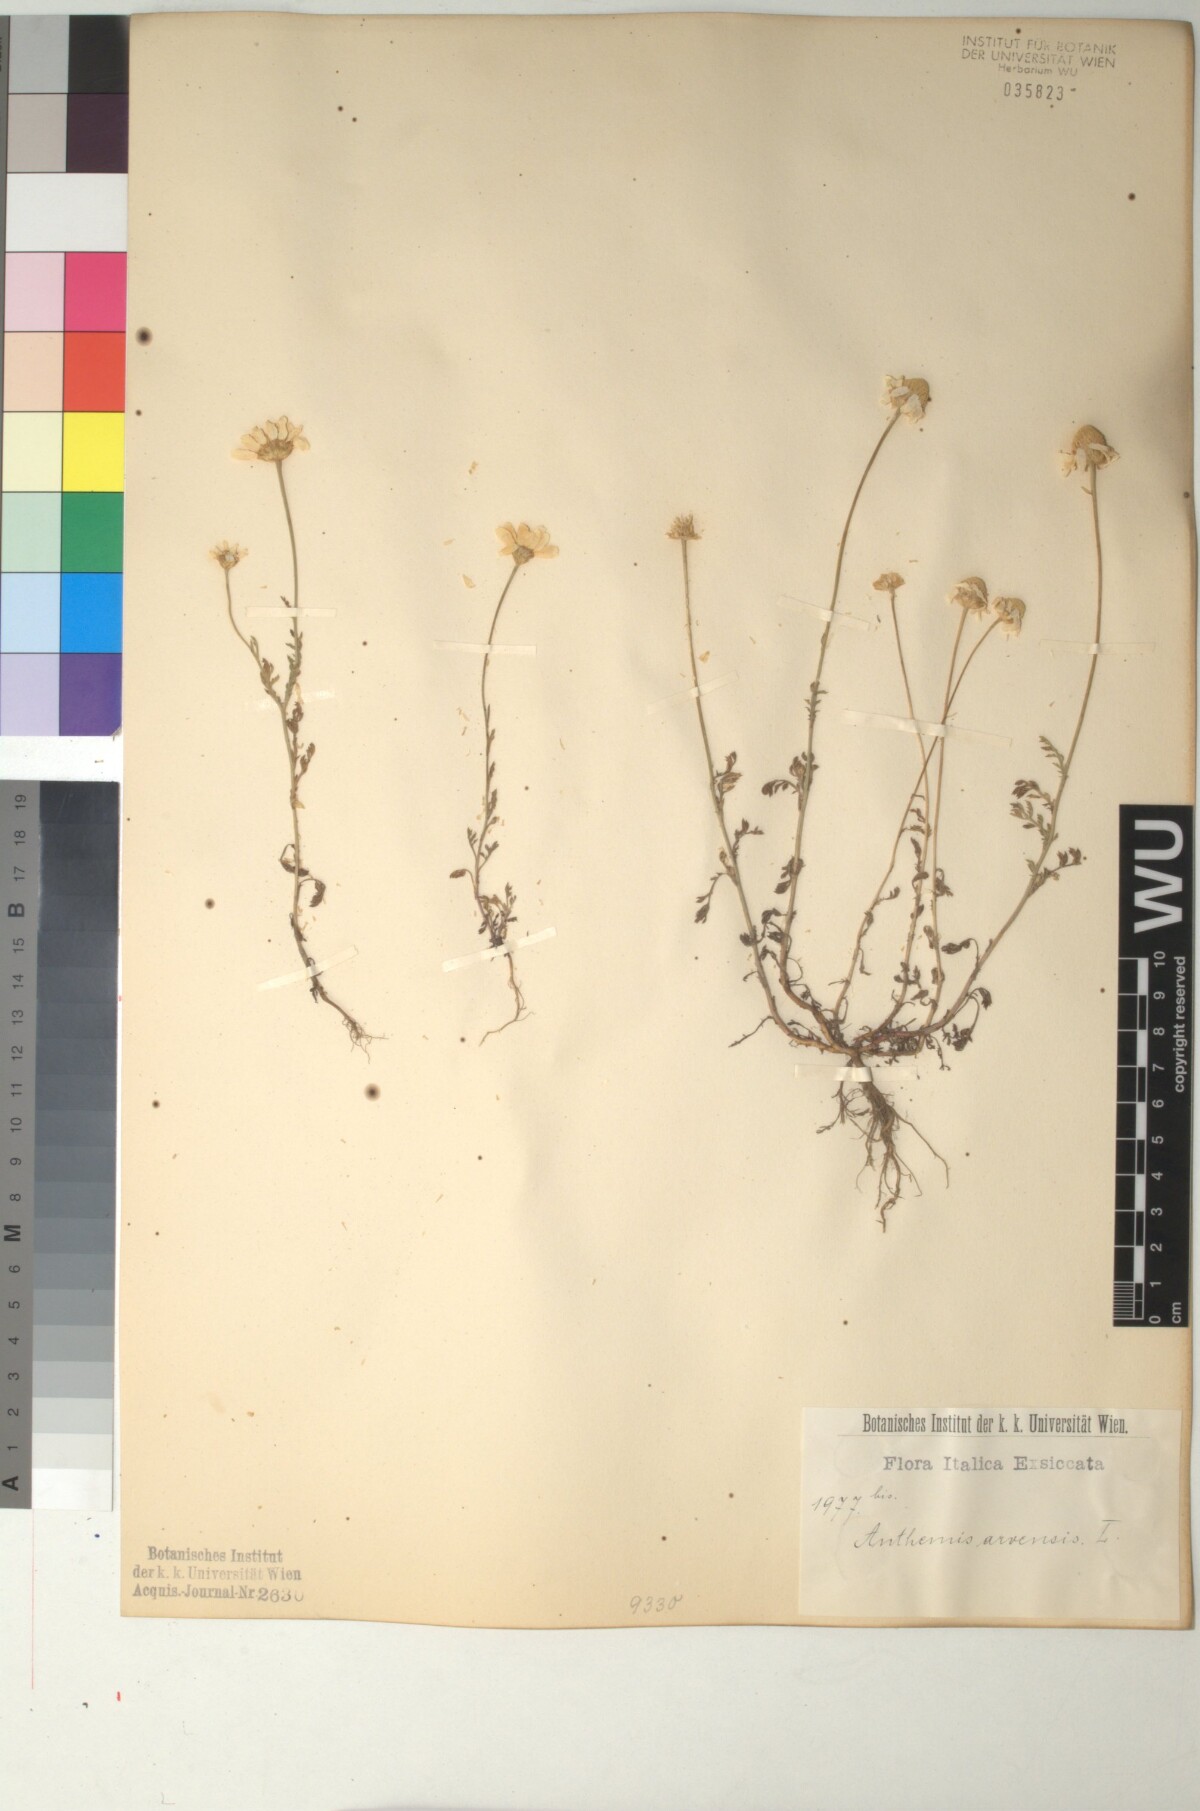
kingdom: Plantae
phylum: Tracheophyta
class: Magnoliopsida
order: Asterales
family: Asteraceae
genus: Anthemis
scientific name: Anthemis arvensis
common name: Corn chamomile
